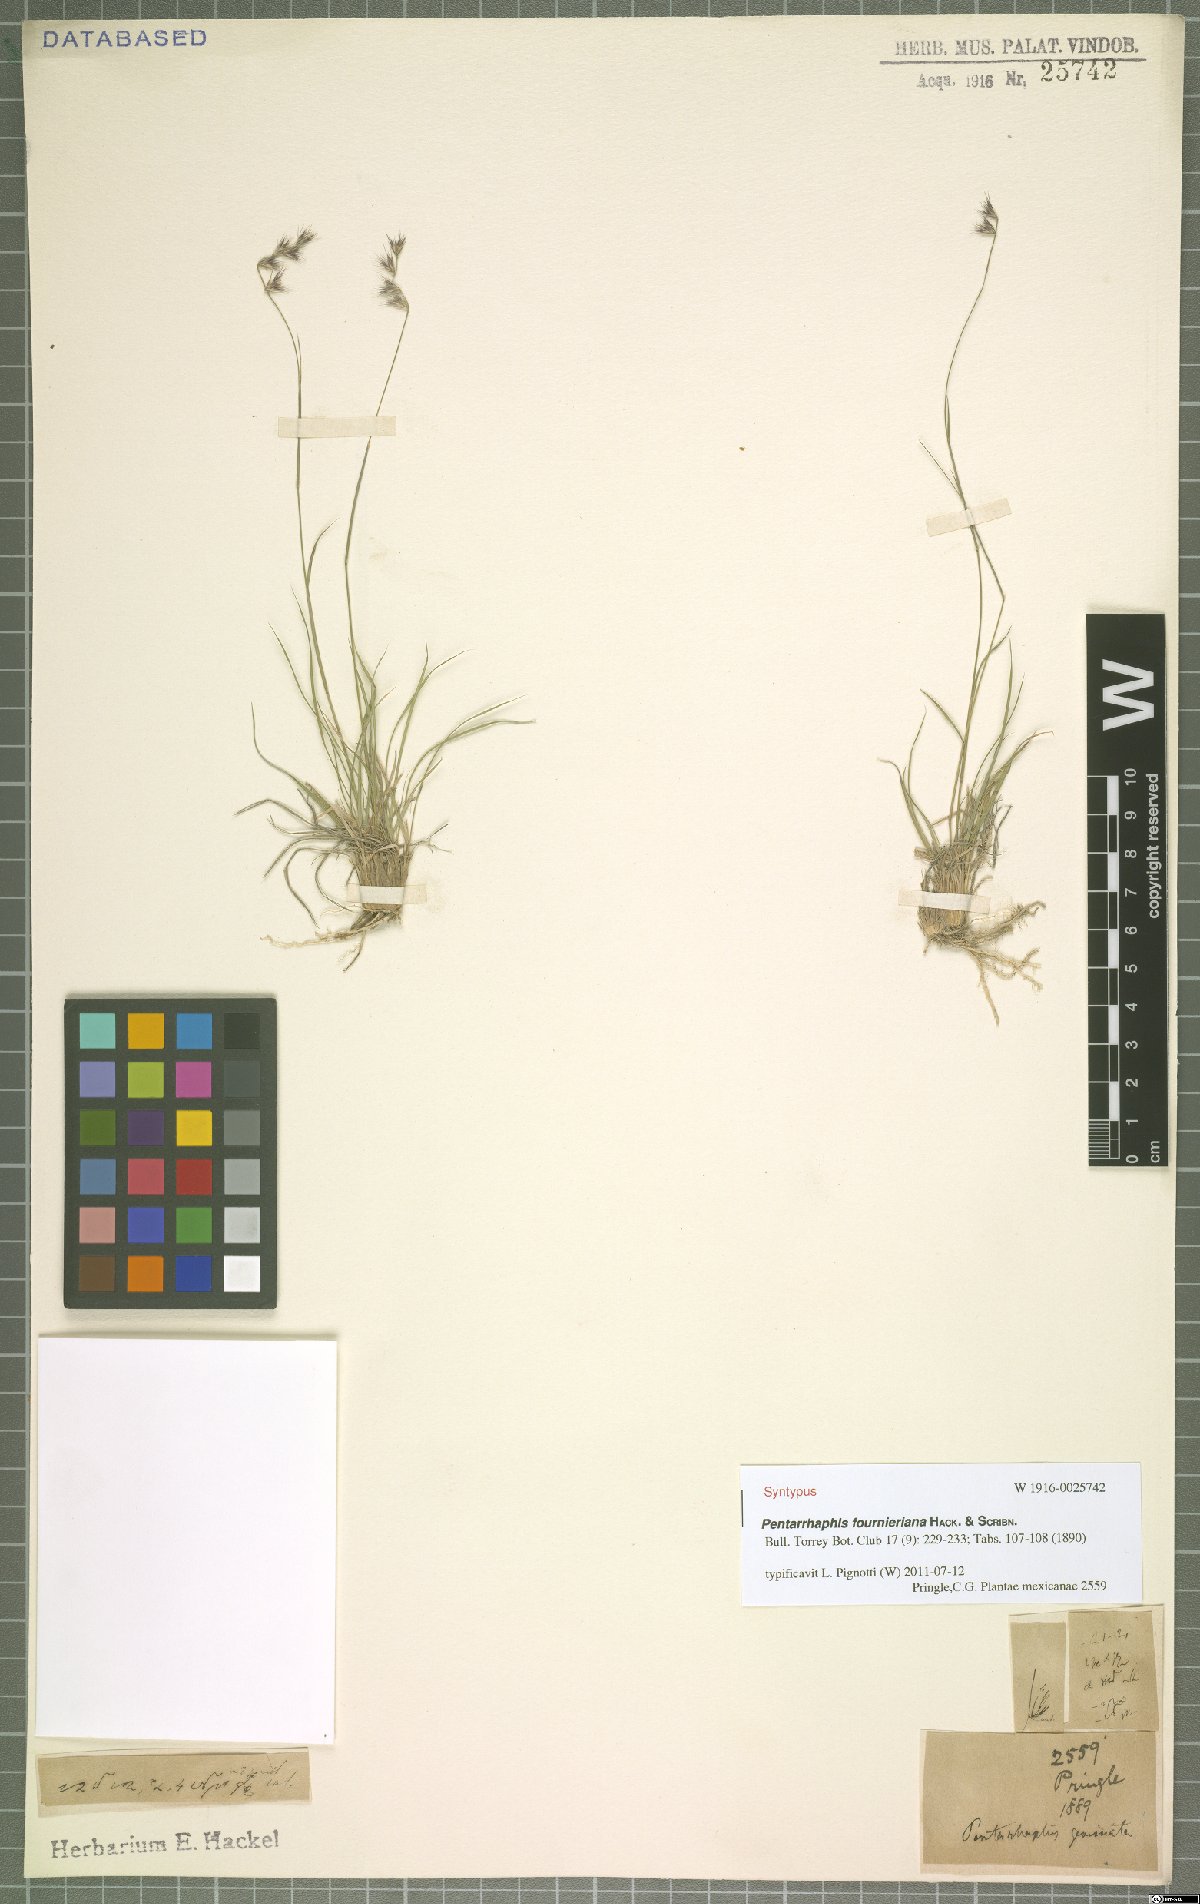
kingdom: Plantae
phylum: Tracheophyta
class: Liliopsida
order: Poales
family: Poaceae
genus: Bouteloua
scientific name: Bouteloua Pentarrhaphis fournieriana
